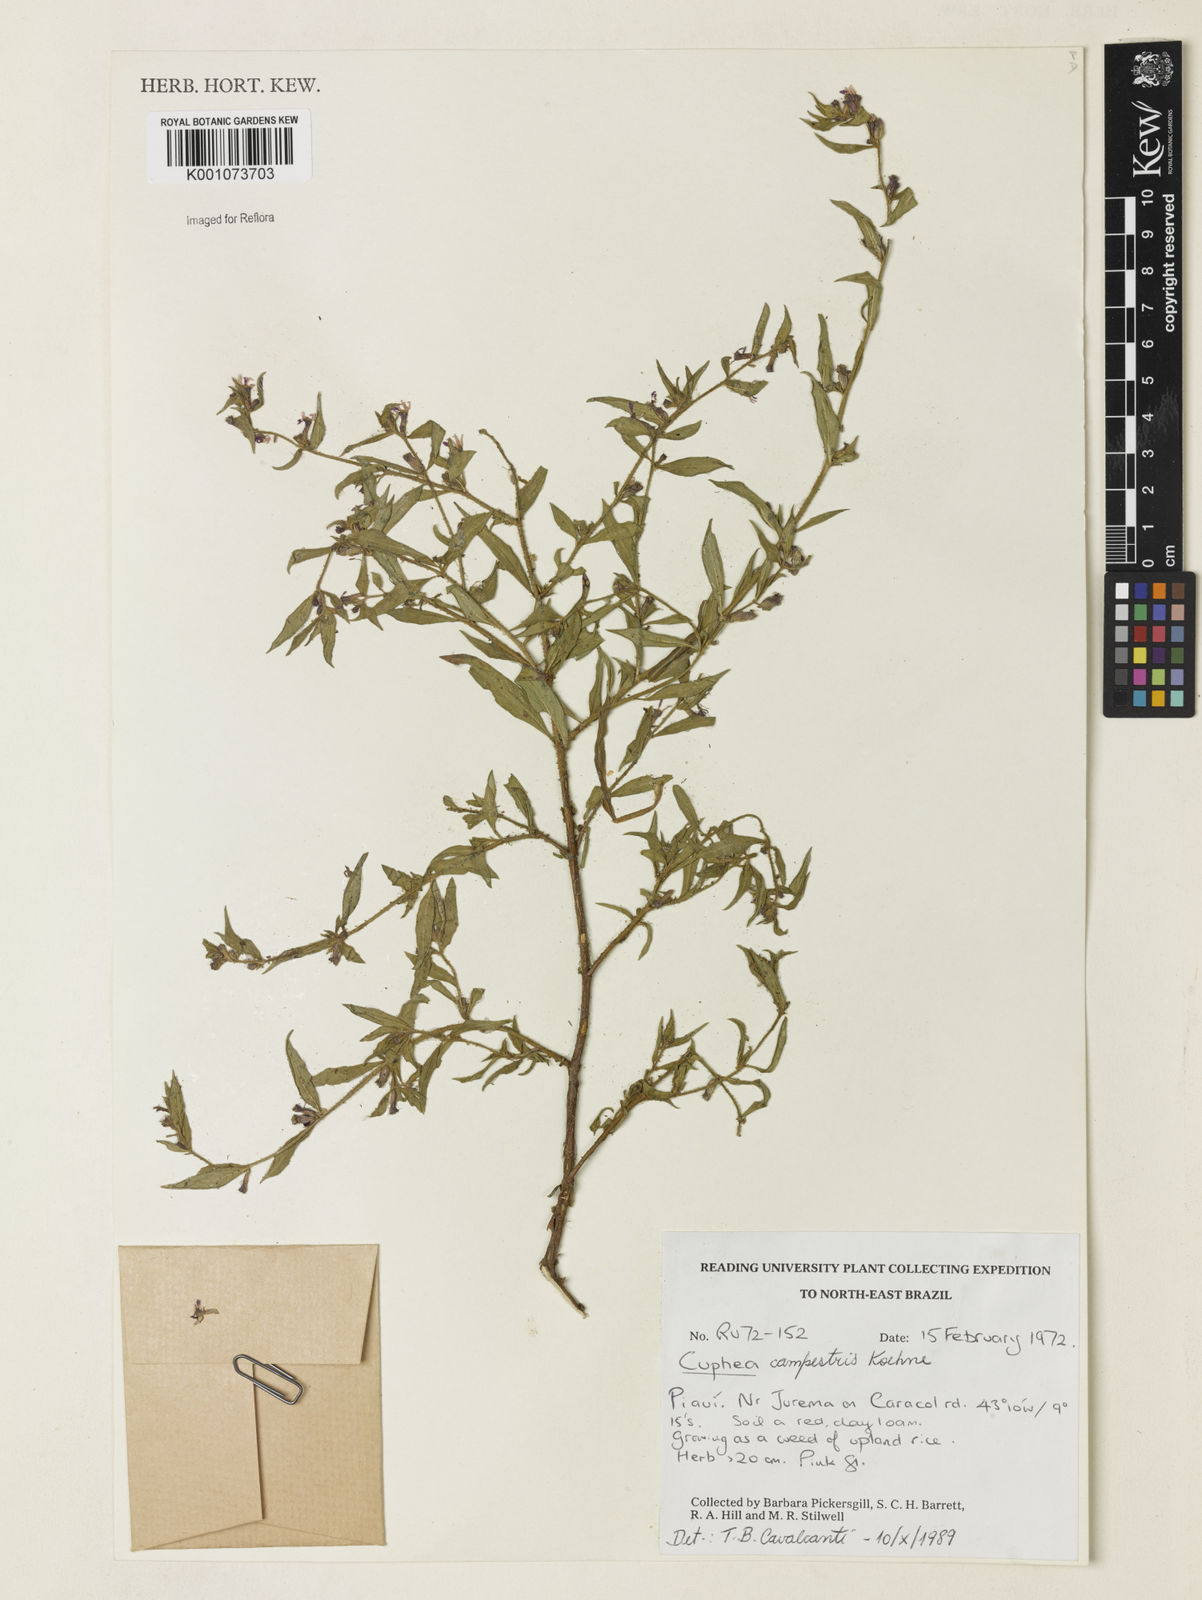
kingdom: Plantae
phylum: Tracheophyta
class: Magnoliopsida
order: Myrtales
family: Lythraceae
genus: Cuphea
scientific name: Cuphea campestris
